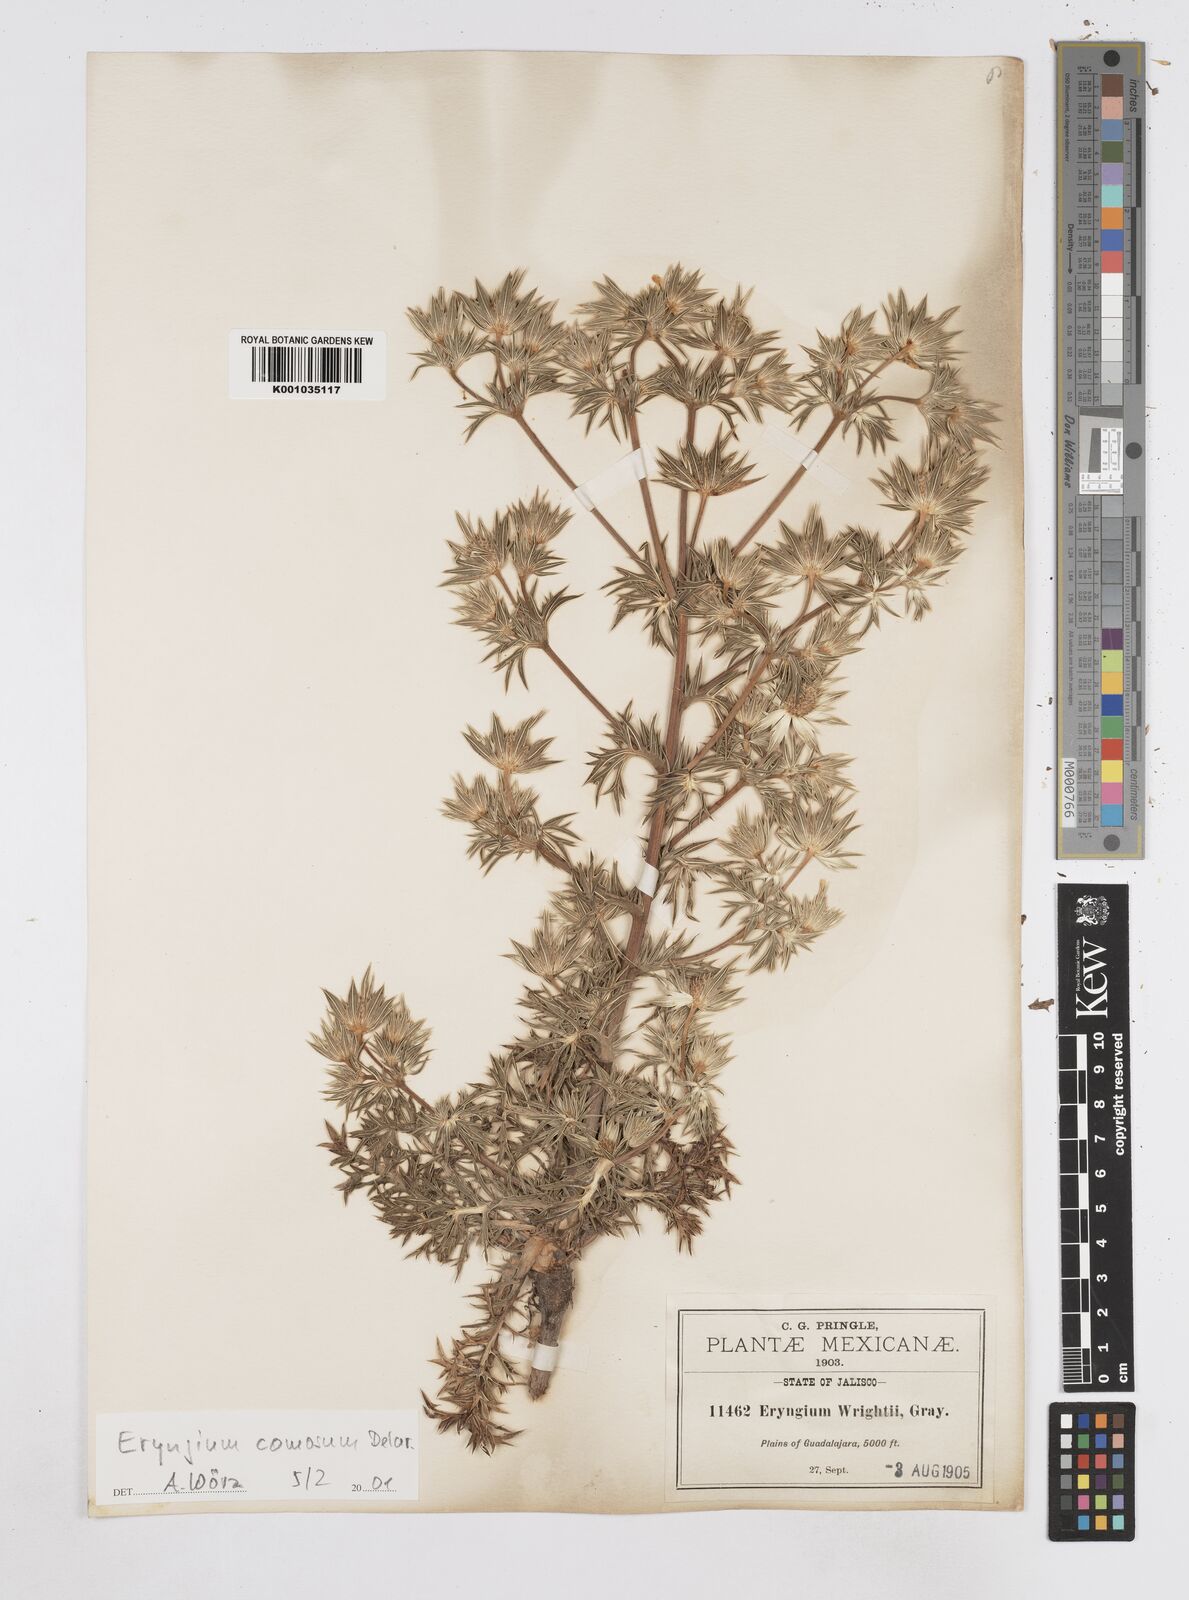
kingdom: Plantae
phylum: Tracheophyta
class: Magnoliopsida
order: Apiales
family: Apiaceae
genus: Eryngium
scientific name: Eryngium comosum
